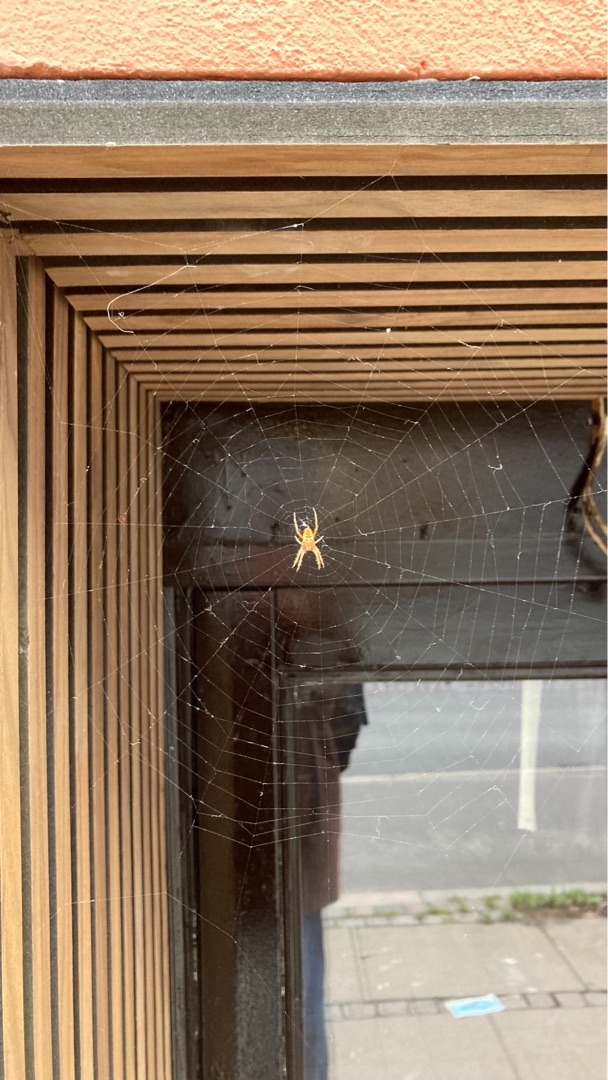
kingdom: Animalia
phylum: Arthropoda
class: Arachnida
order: Araneae
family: Araneidae
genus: Araneus
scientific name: Araneus diadematus
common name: Korsedderkop
